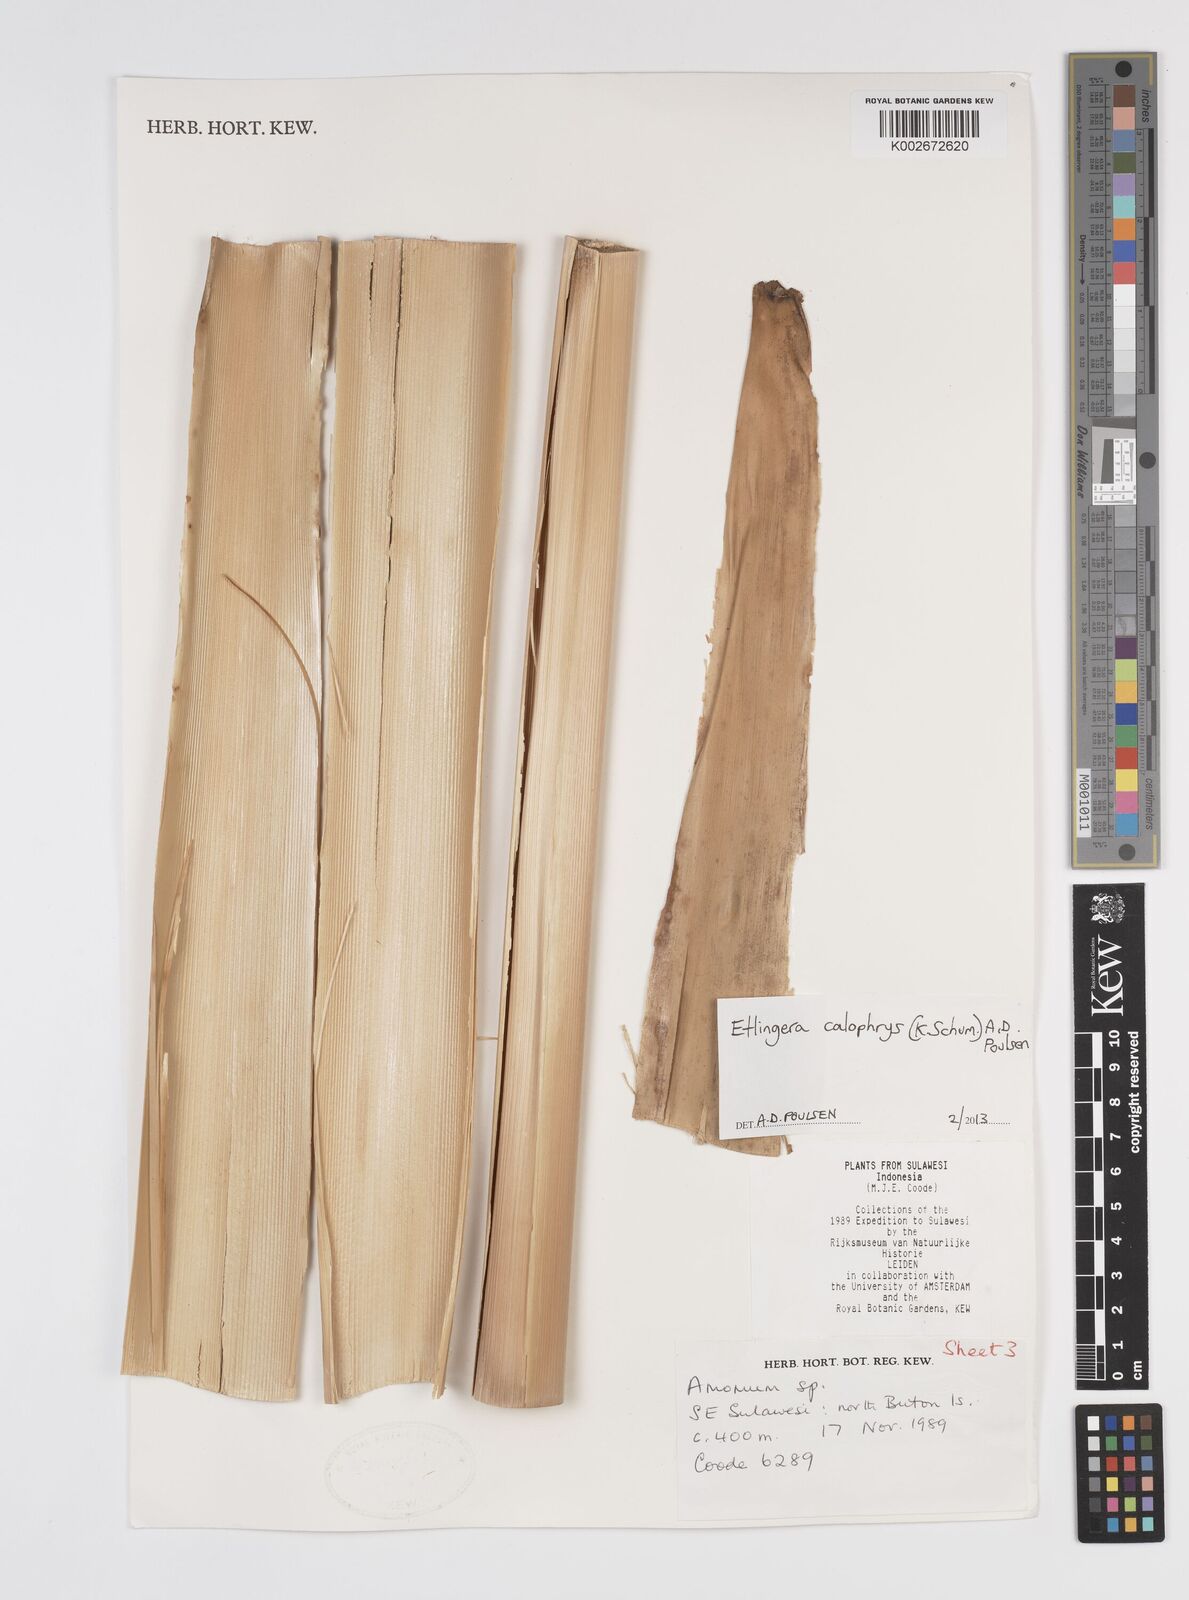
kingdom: Plantae
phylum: Tracheophyta
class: Liliopsida
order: Zingiberales
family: Zingiberaceae
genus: Etlingera
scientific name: Etlingera calophrys
